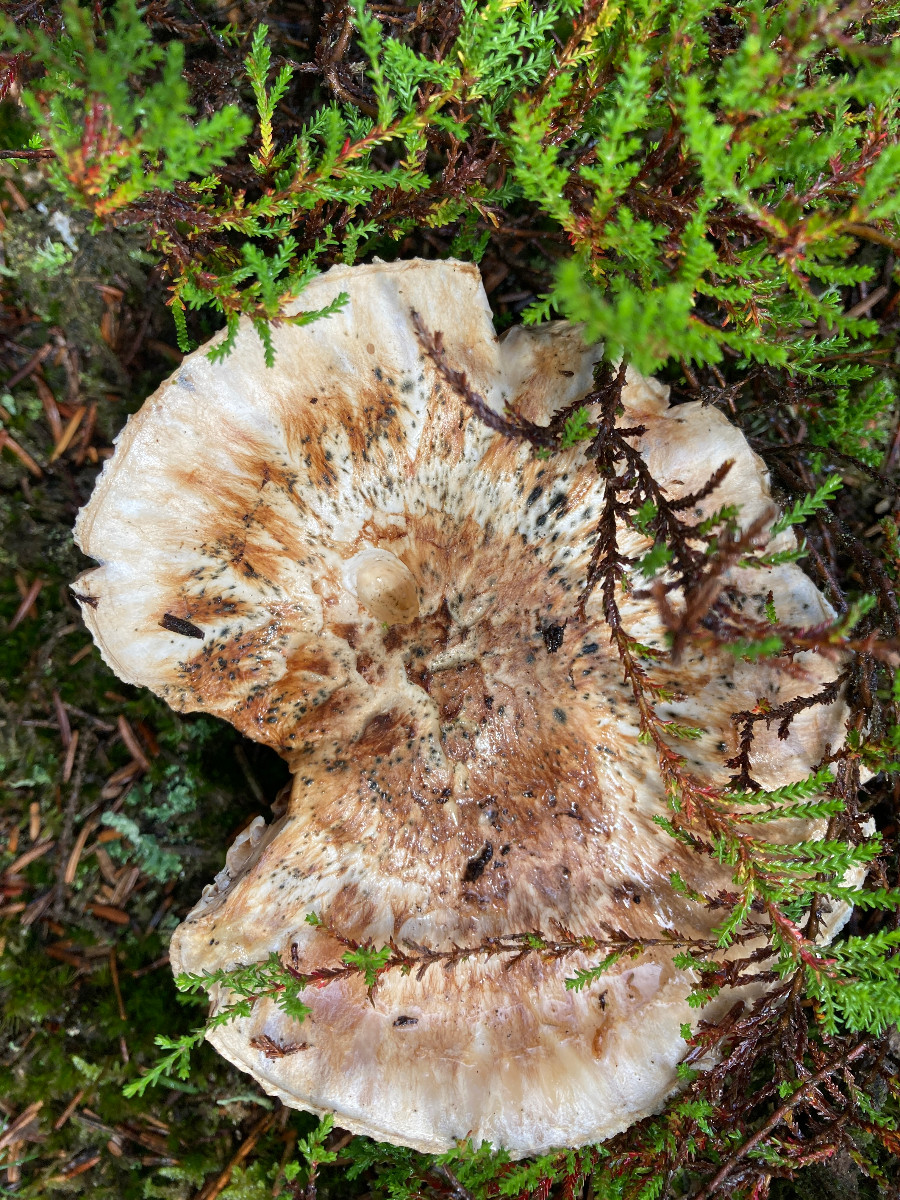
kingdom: Fungi
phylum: Basidiomycota
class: Agaricomycetes
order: Agaricales
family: Tricholomataceae
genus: Tricholoma
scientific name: Tricholoma matsutake
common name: duft-ridderhat
